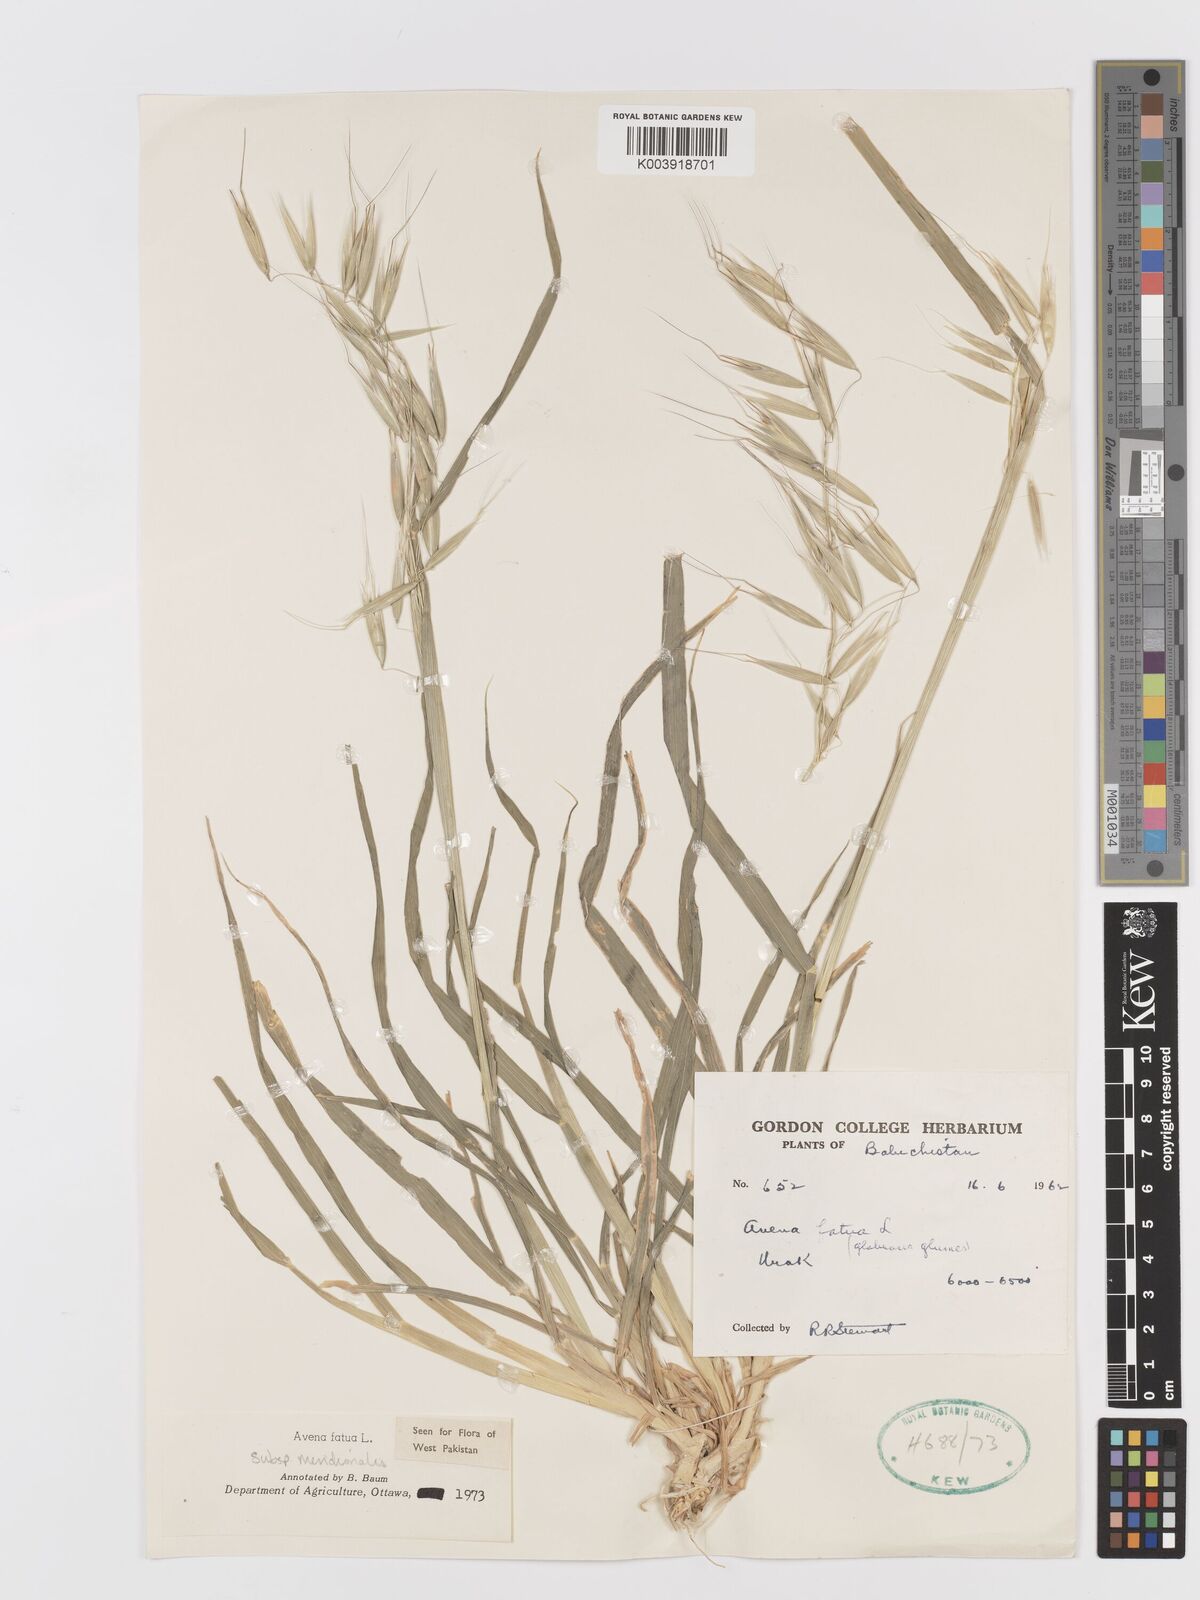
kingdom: Plantae
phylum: Tracheophyta
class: Liliopsida
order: Poales
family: Poaceae
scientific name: Poaceae
